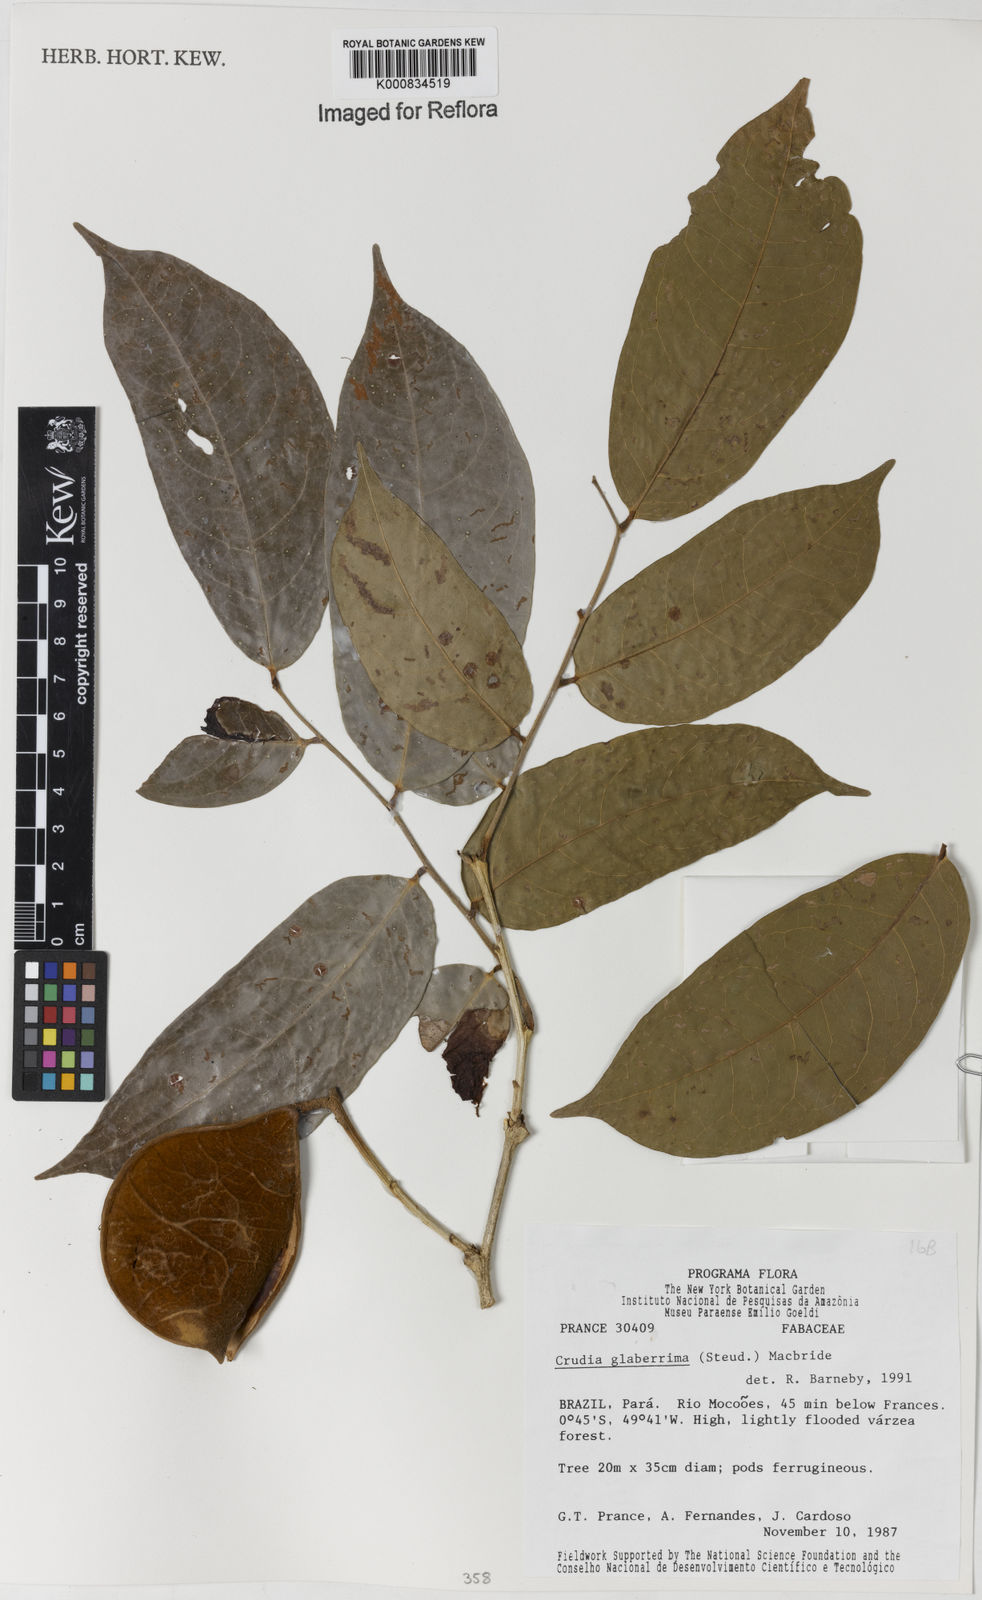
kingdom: Plantae
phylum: Tracheophyta
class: Magnoliopsida
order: Fabales
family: Fabaceae
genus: Crudia
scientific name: Crudia glaberrima
